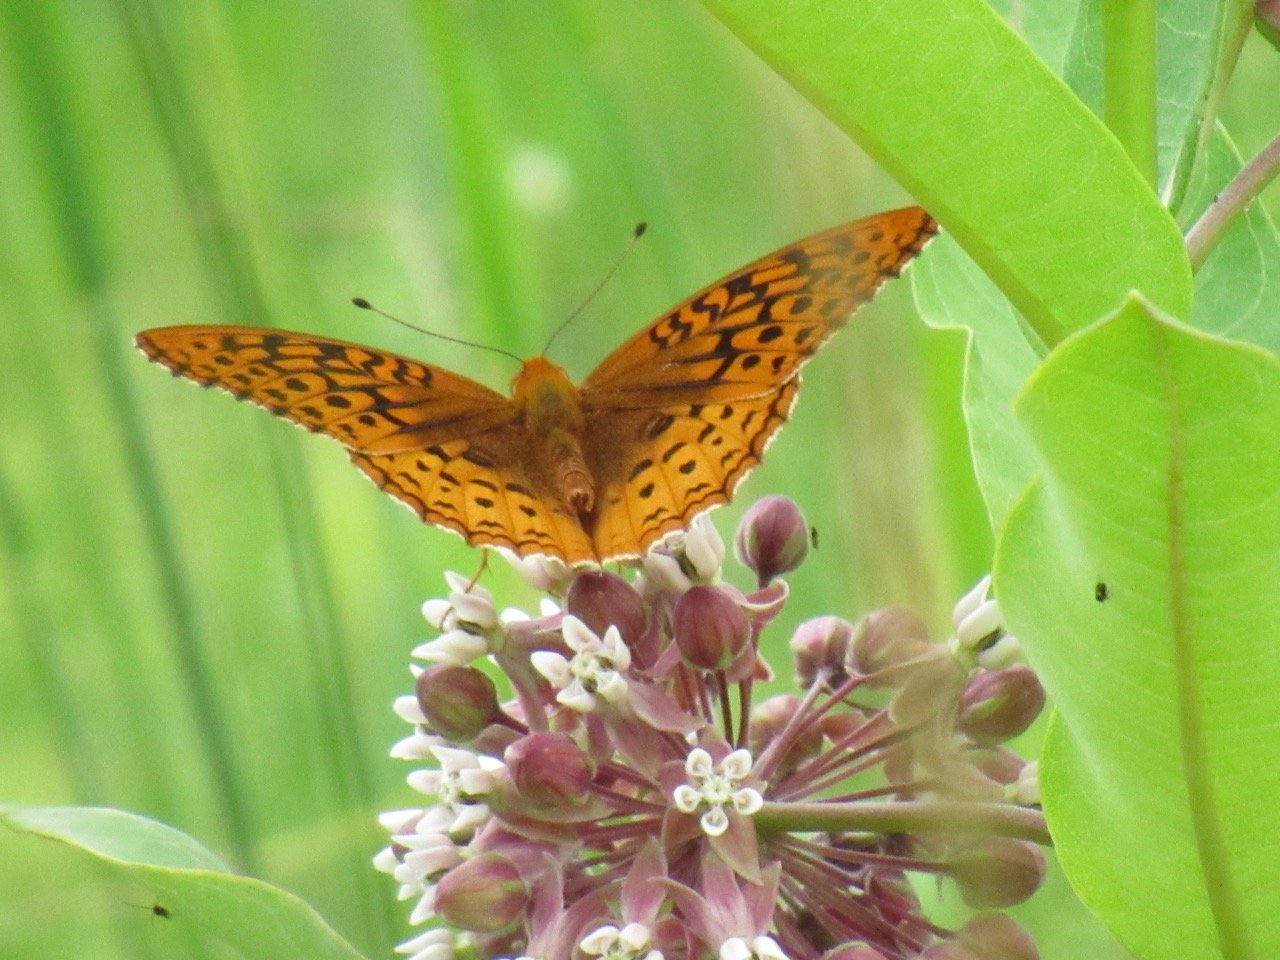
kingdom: Animalia
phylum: Arthropoda
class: Insecta
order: Lepidoptera
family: Nymphalidae
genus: Speyeria
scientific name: Speyeria cybele
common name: Great Spangled Fritillary
